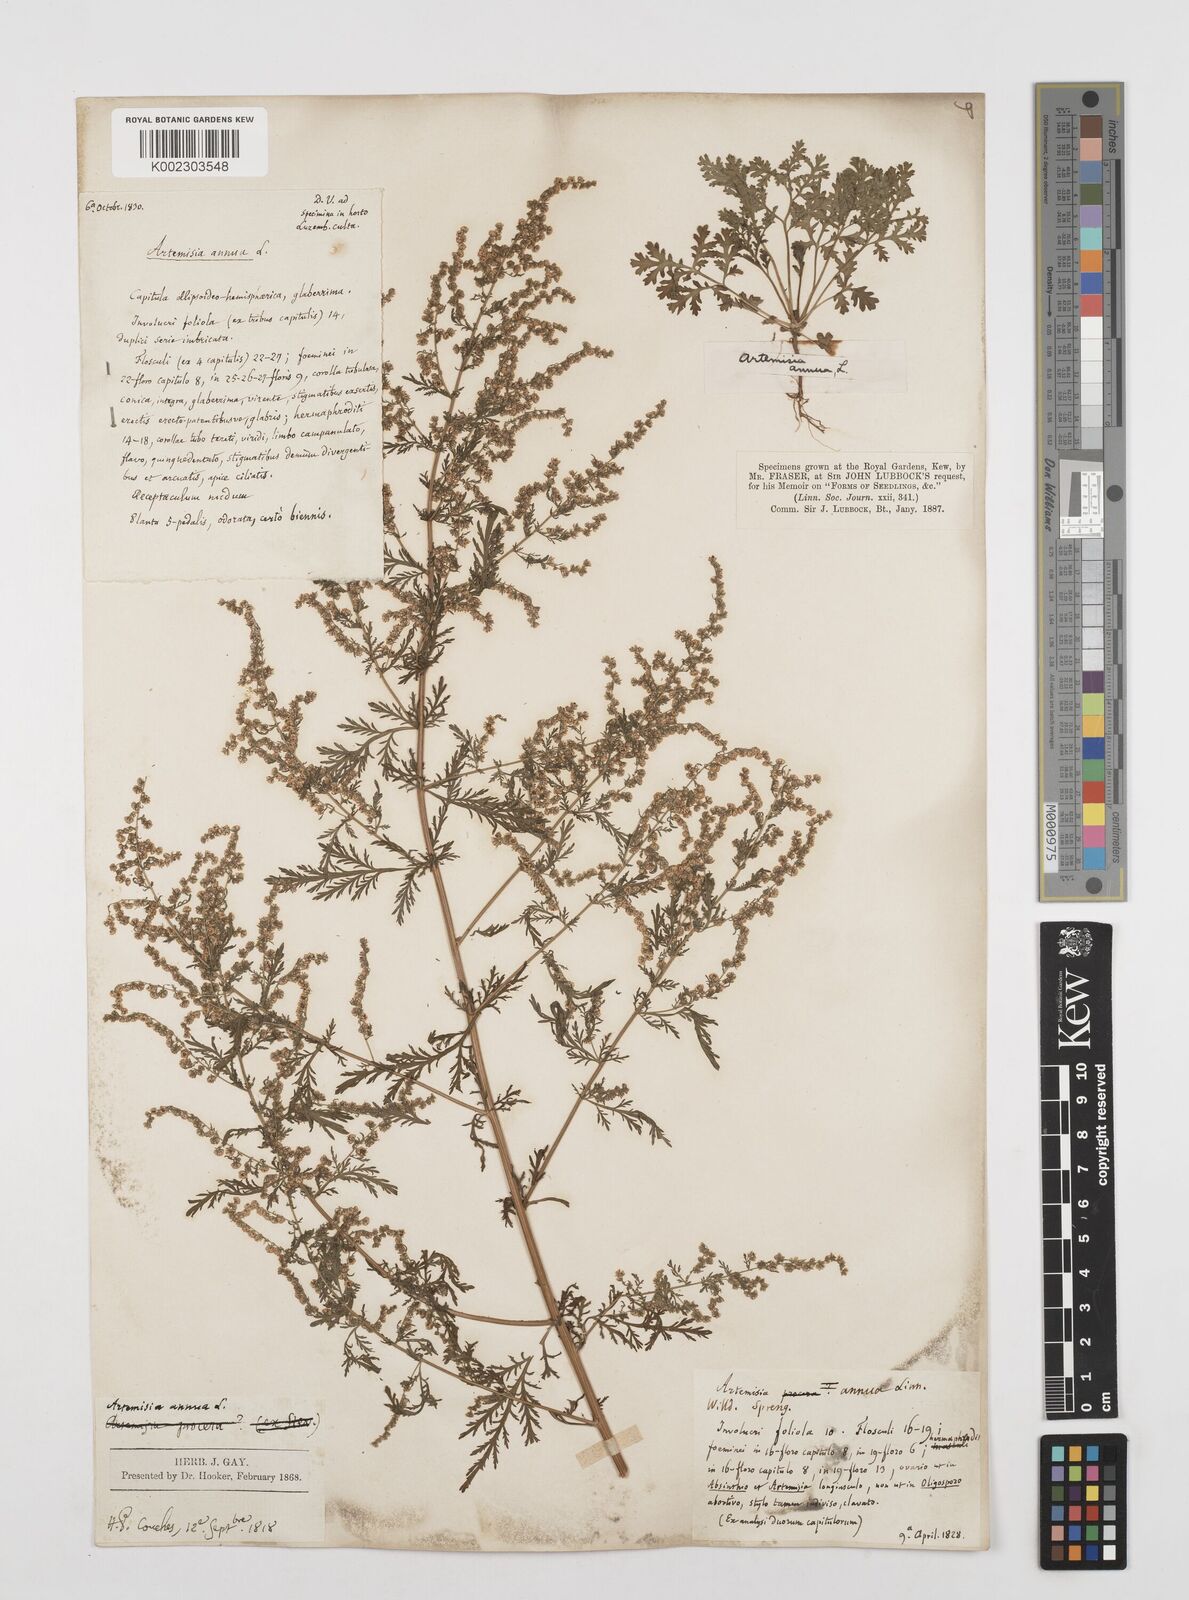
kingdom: Plantae
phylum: Tracheophyta
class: Magnoliopsida
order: Asterales
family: Asteraceae
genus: Artemisia
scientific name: Artemisia annua
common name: Sweet sagewort
